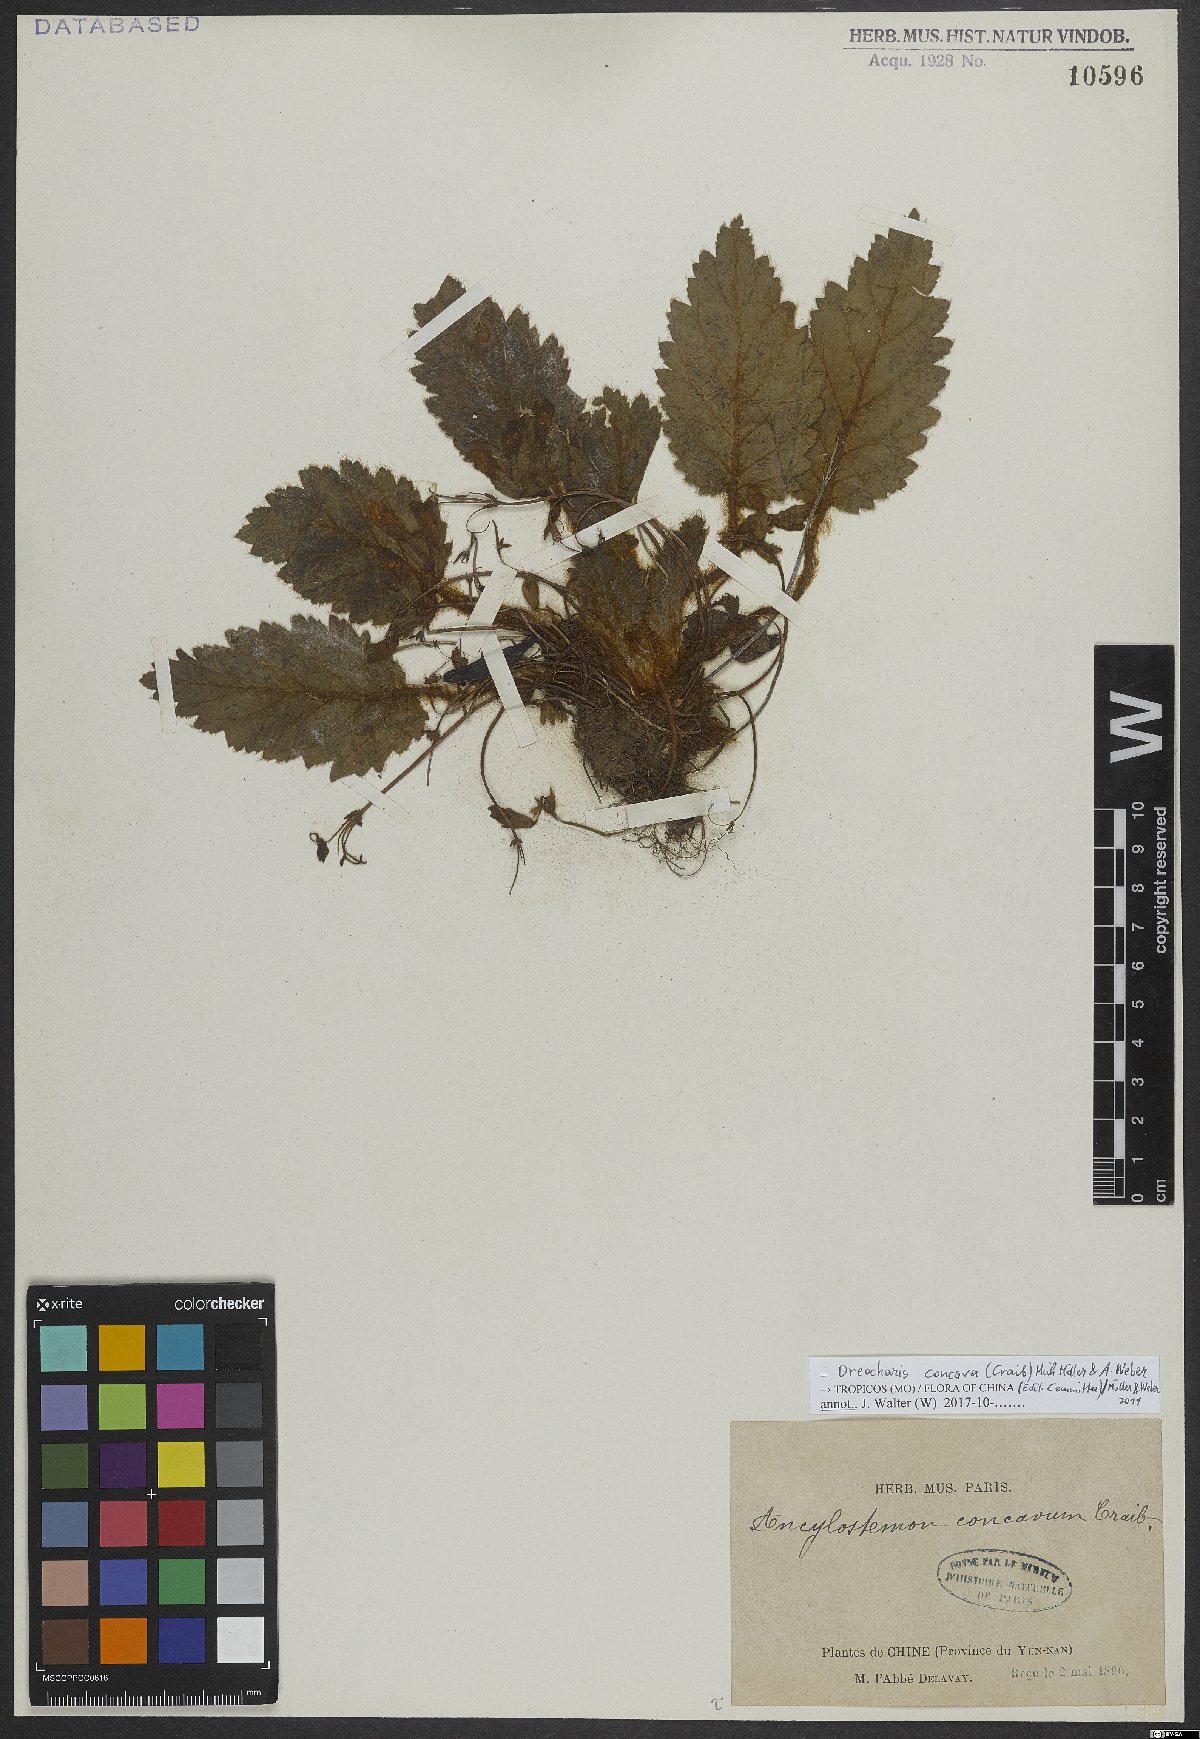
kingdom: Plantae
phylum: Tracheophyta
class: Magnoliopsida
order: Lamiales
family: Gesneriaceae
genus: Oreocharis
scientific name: Oreocharis concava
